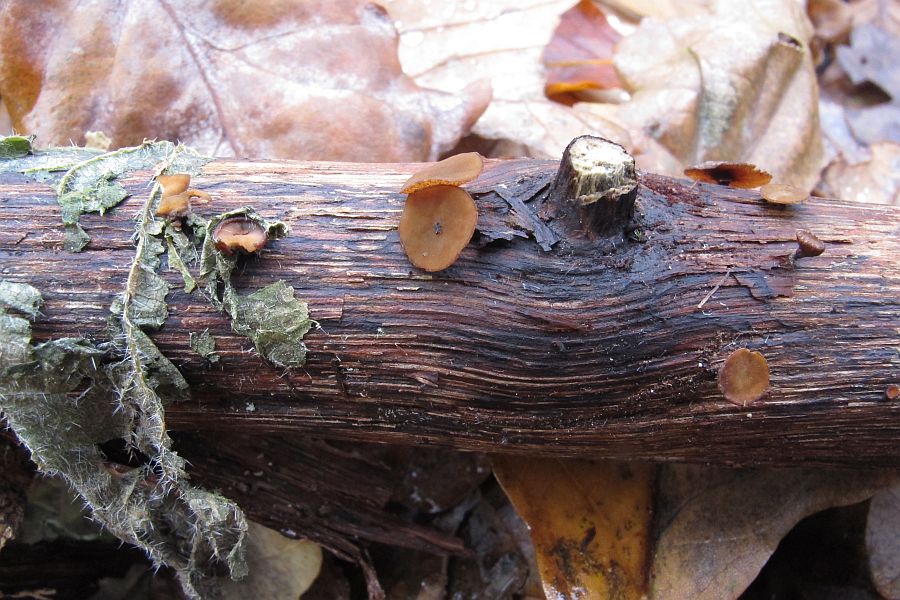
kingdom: Fungi
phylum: Ascomycota
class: Leotiomycetes
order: Helotiales
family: Rutstroemiaceae
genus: Rutstroemia
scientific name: Rutstroemia firma
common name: gren-brunskive
